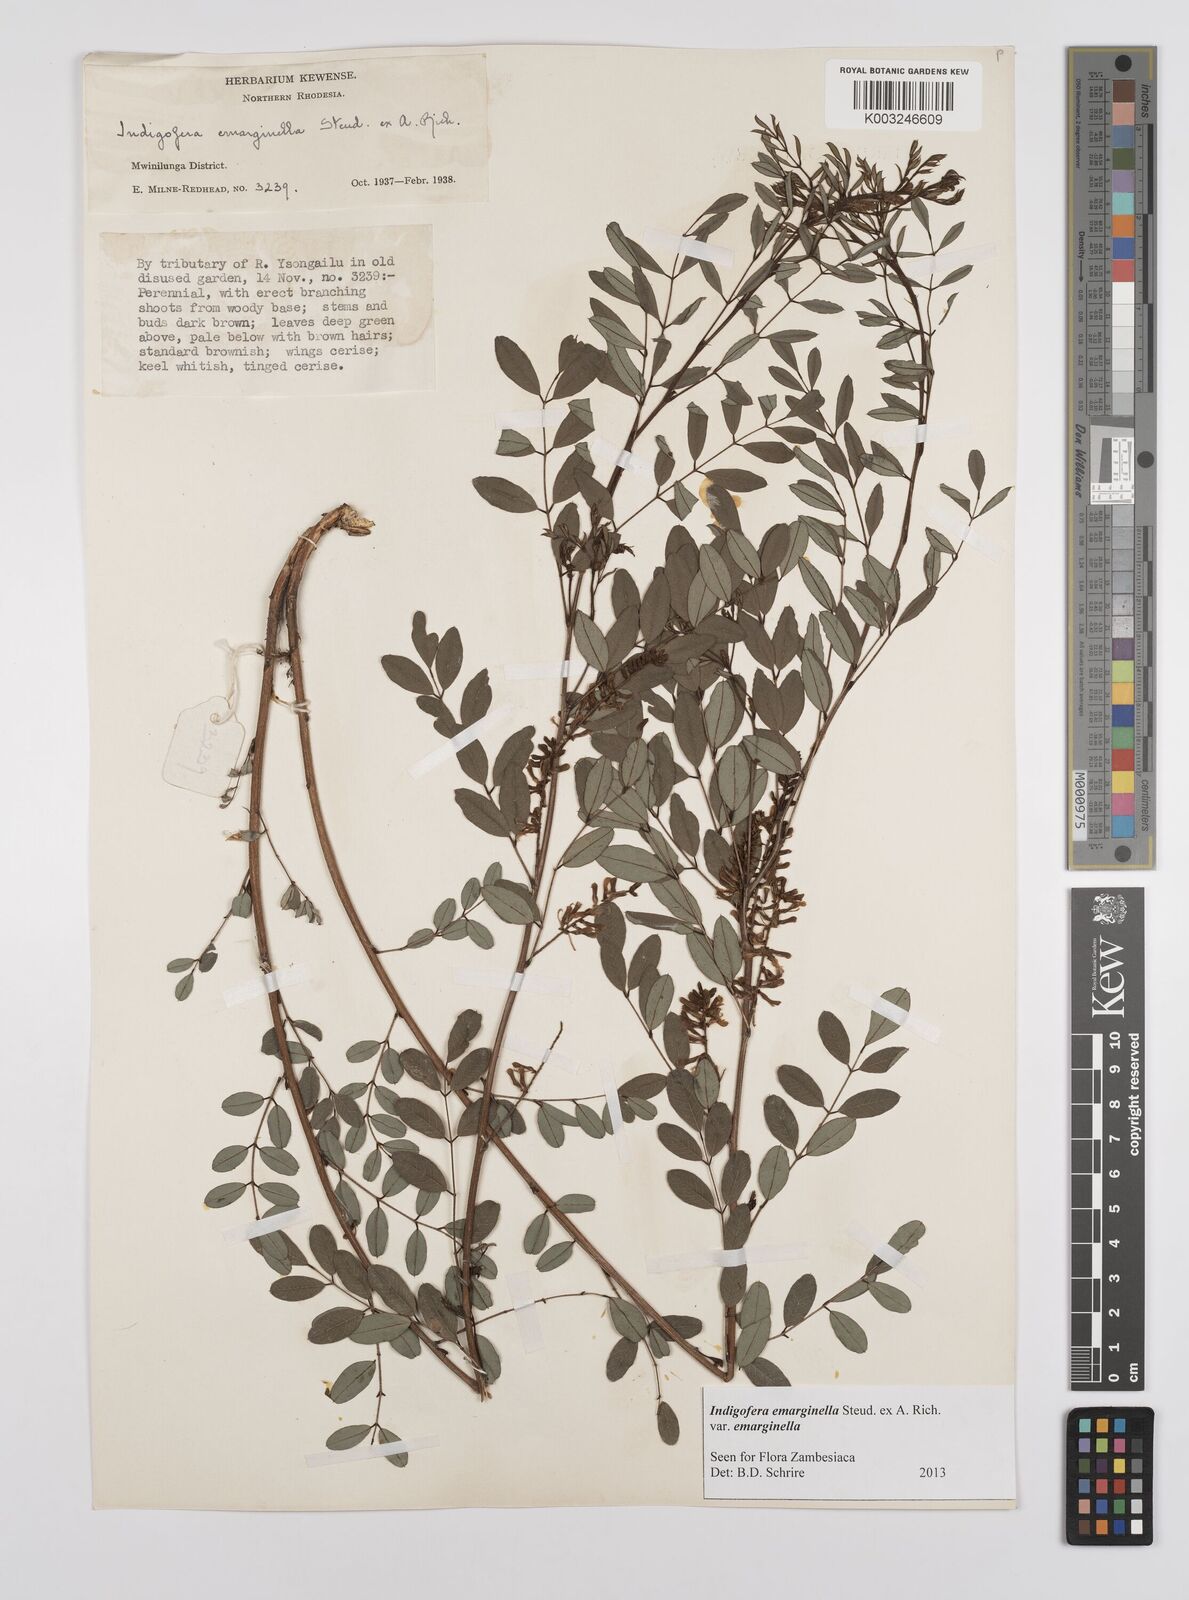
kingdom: Plantae
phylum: Tracheophyta
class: Magnoliopsida
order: Fabales
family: Fabaceae
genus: Indigofera
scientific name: Indigofera emarginella
